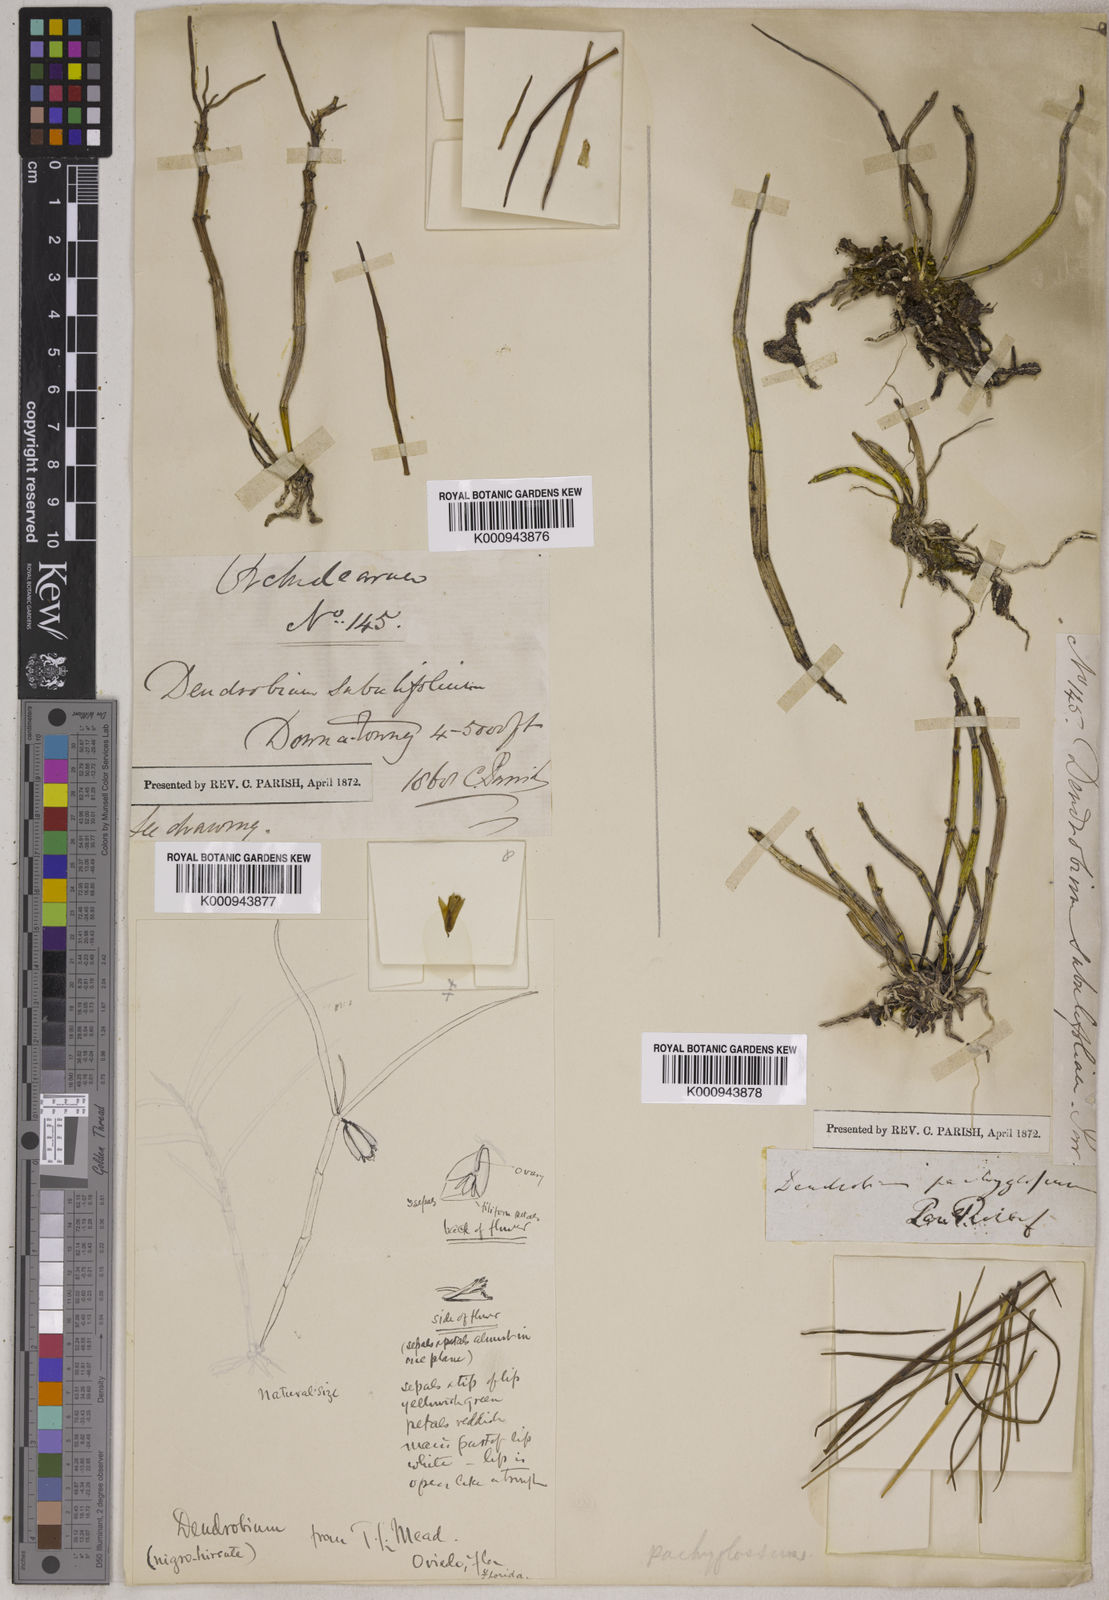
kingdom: Plantae
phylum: Tracheophyta
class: Liliopsida
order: Asparagales
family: Orchidaceae
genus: Dendrobium
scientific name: Dendrobium pachyglossum
